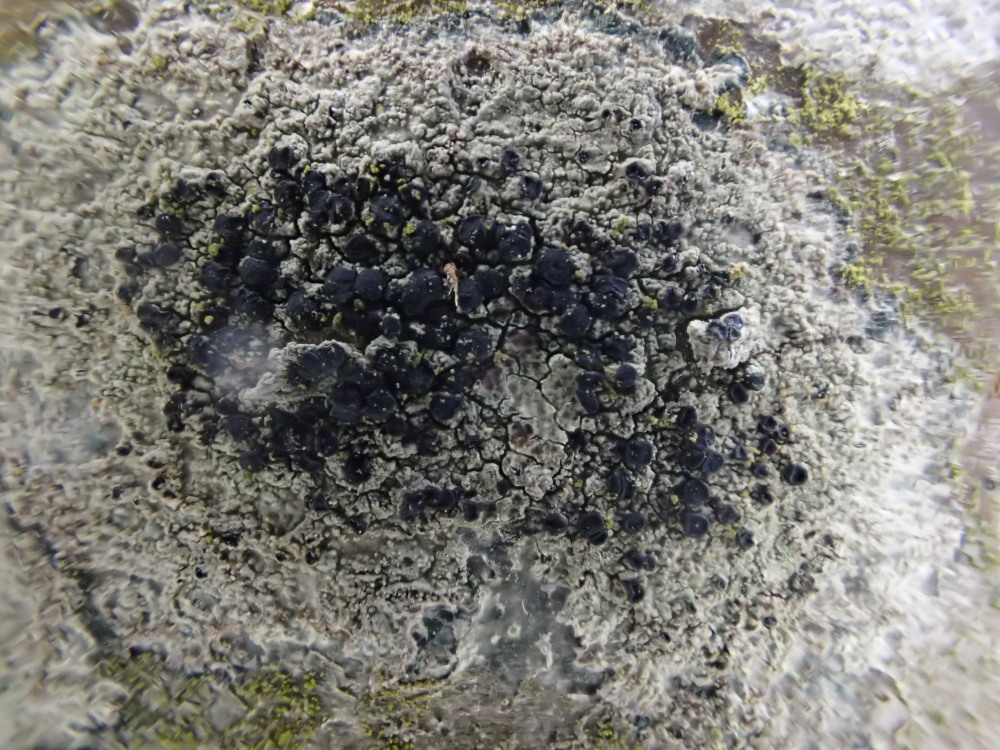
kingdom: Fungi
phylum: Ascomycota
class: Lecanoromycetes
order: Lecanorales
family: Lecanoraceae
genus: Lecidella
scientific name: Lecidella elaeochroma
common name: grågrøn skivelav
